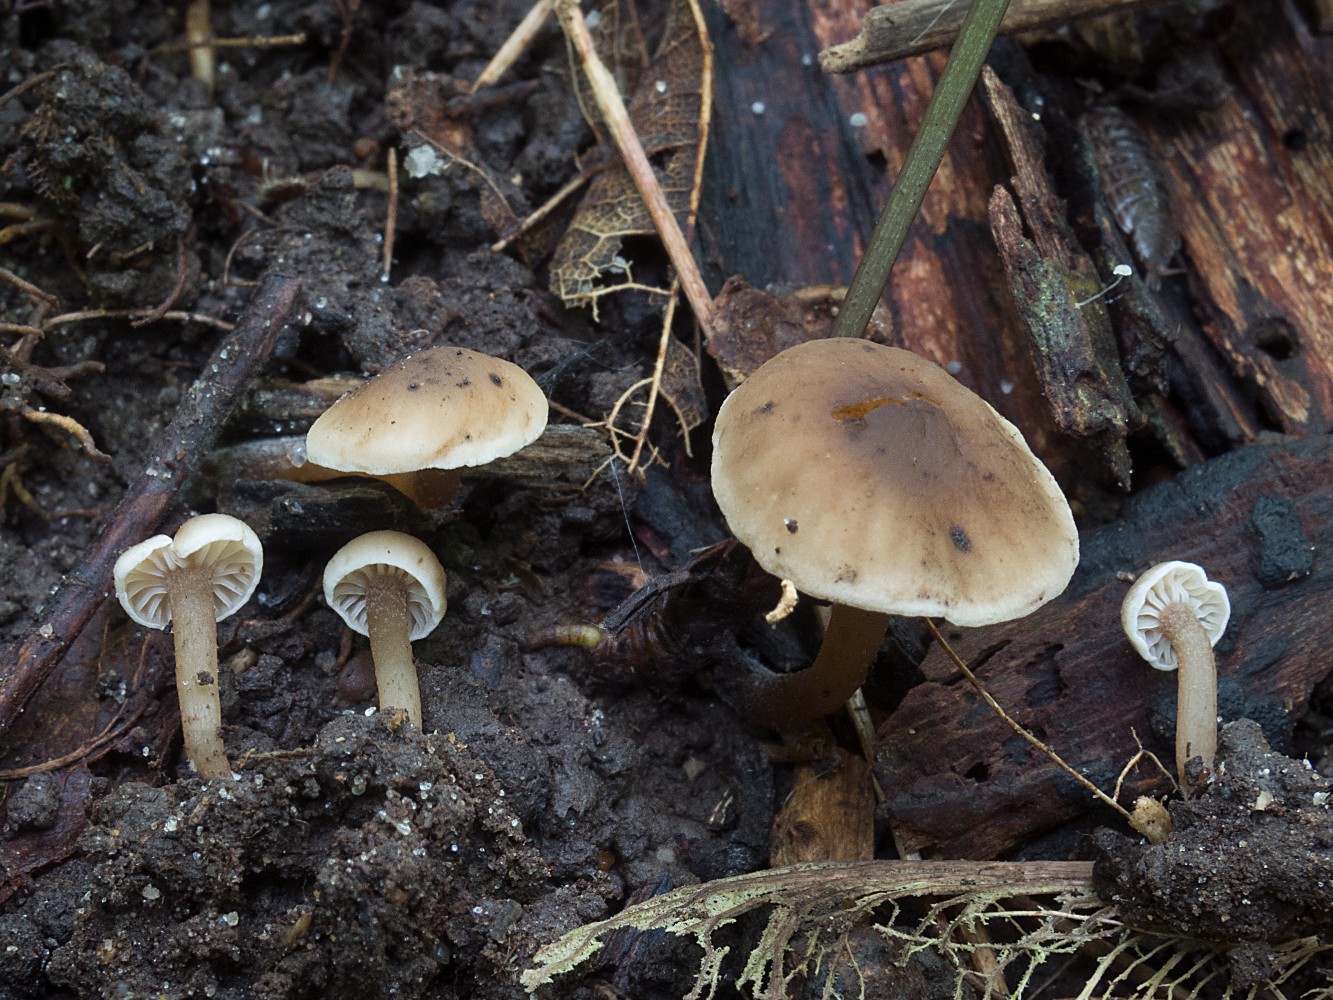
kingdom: Fungi
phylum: Basidiomycota
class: Agaricomycetes
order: Agaricales
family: Clavariaceae
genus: Hodophilus
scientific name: Hodophilus foetens
